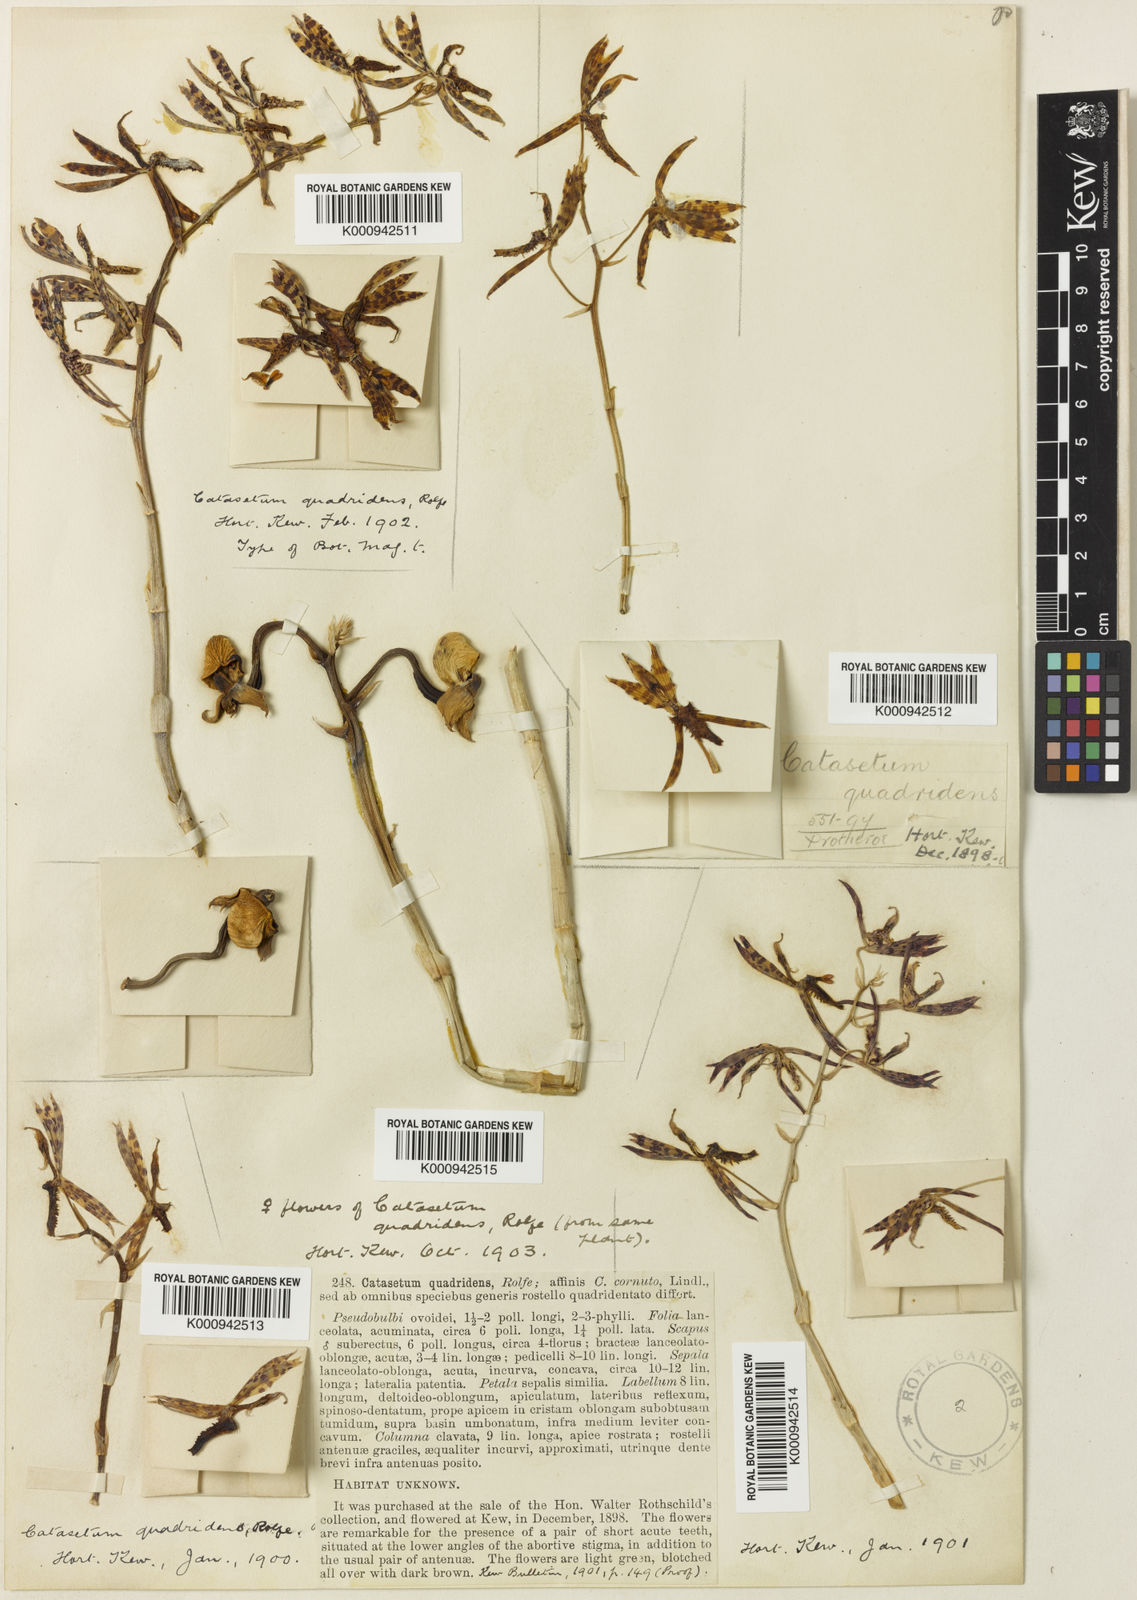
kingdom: Plantae
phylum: Tracheophyta
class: Liliopsida
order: Asparagales
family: Orchidaceae
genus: Catasetum
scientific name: Catasetum quadridens
